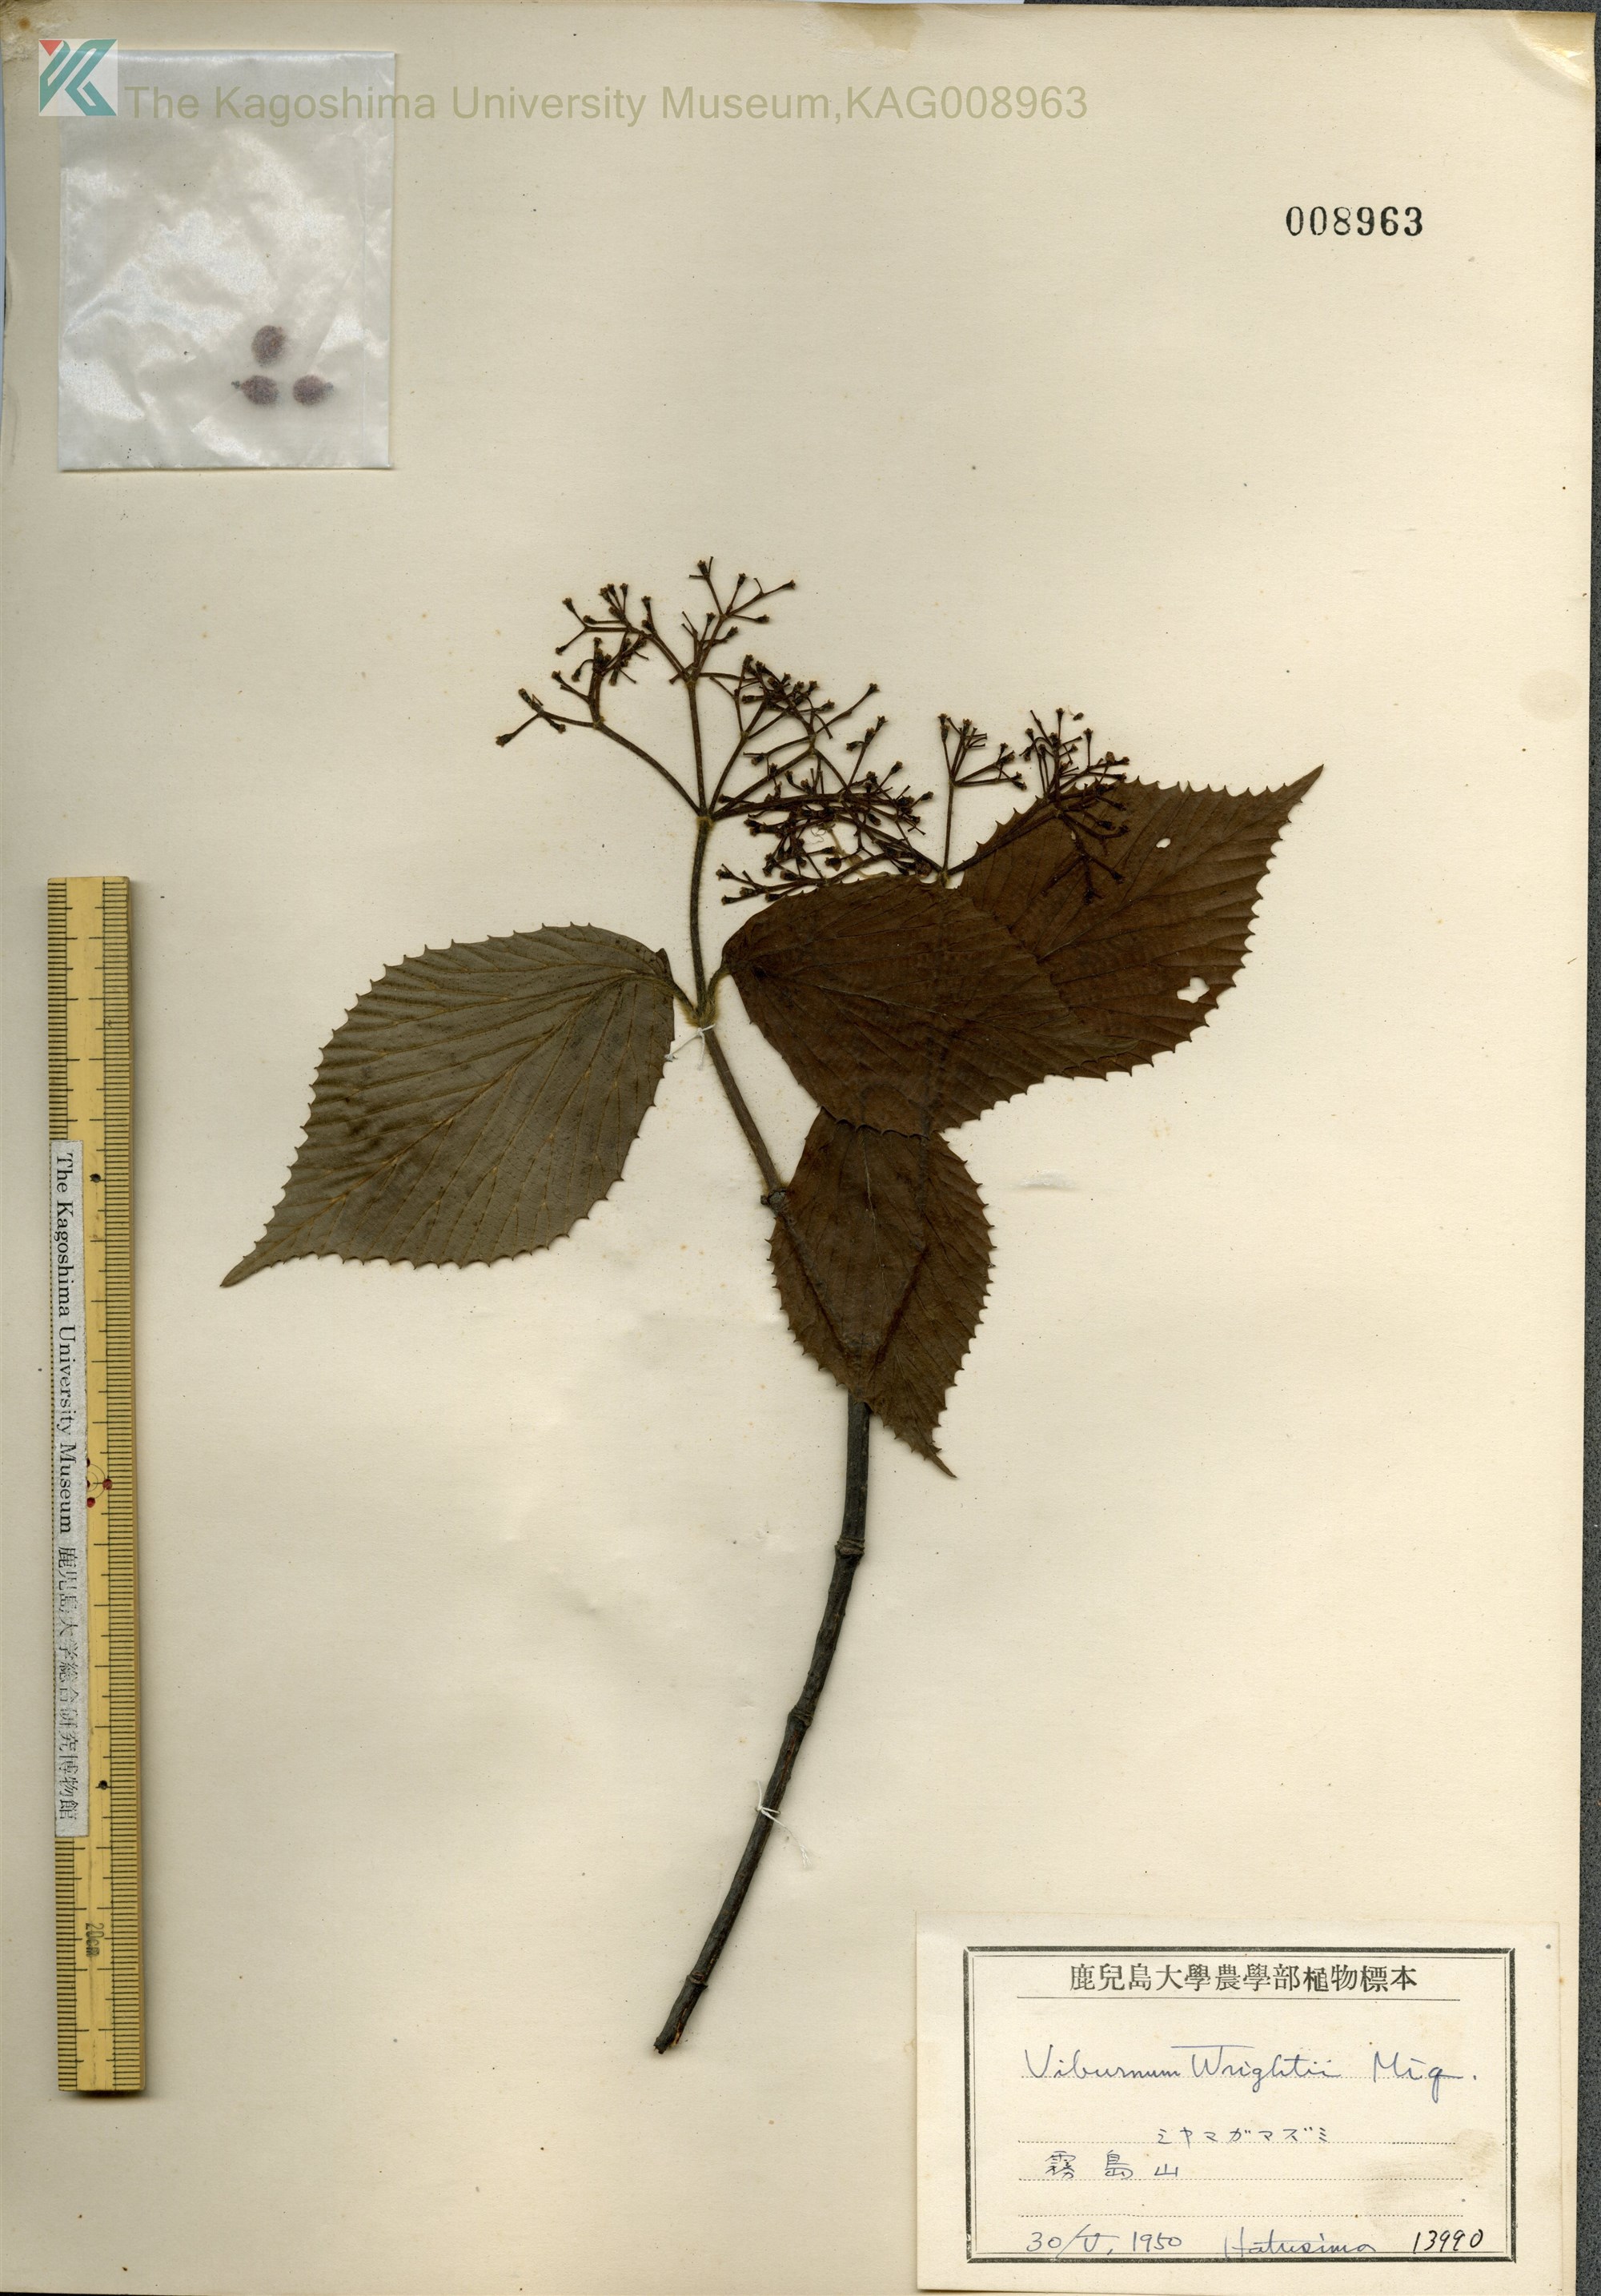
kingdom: Plantae
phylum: Tracheophyta
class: Magnoliopsida
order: Dipsacales
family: Viburnaceae
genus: Viburnum
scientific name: Viburnum wrightii
